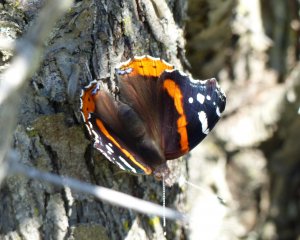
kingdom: Animalia
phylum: Arthropoda
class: Insecta
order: Lepidoptera
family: Nymphalidae
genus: Vanessa
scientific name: Vanessa atalanta
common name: Red Admiral
